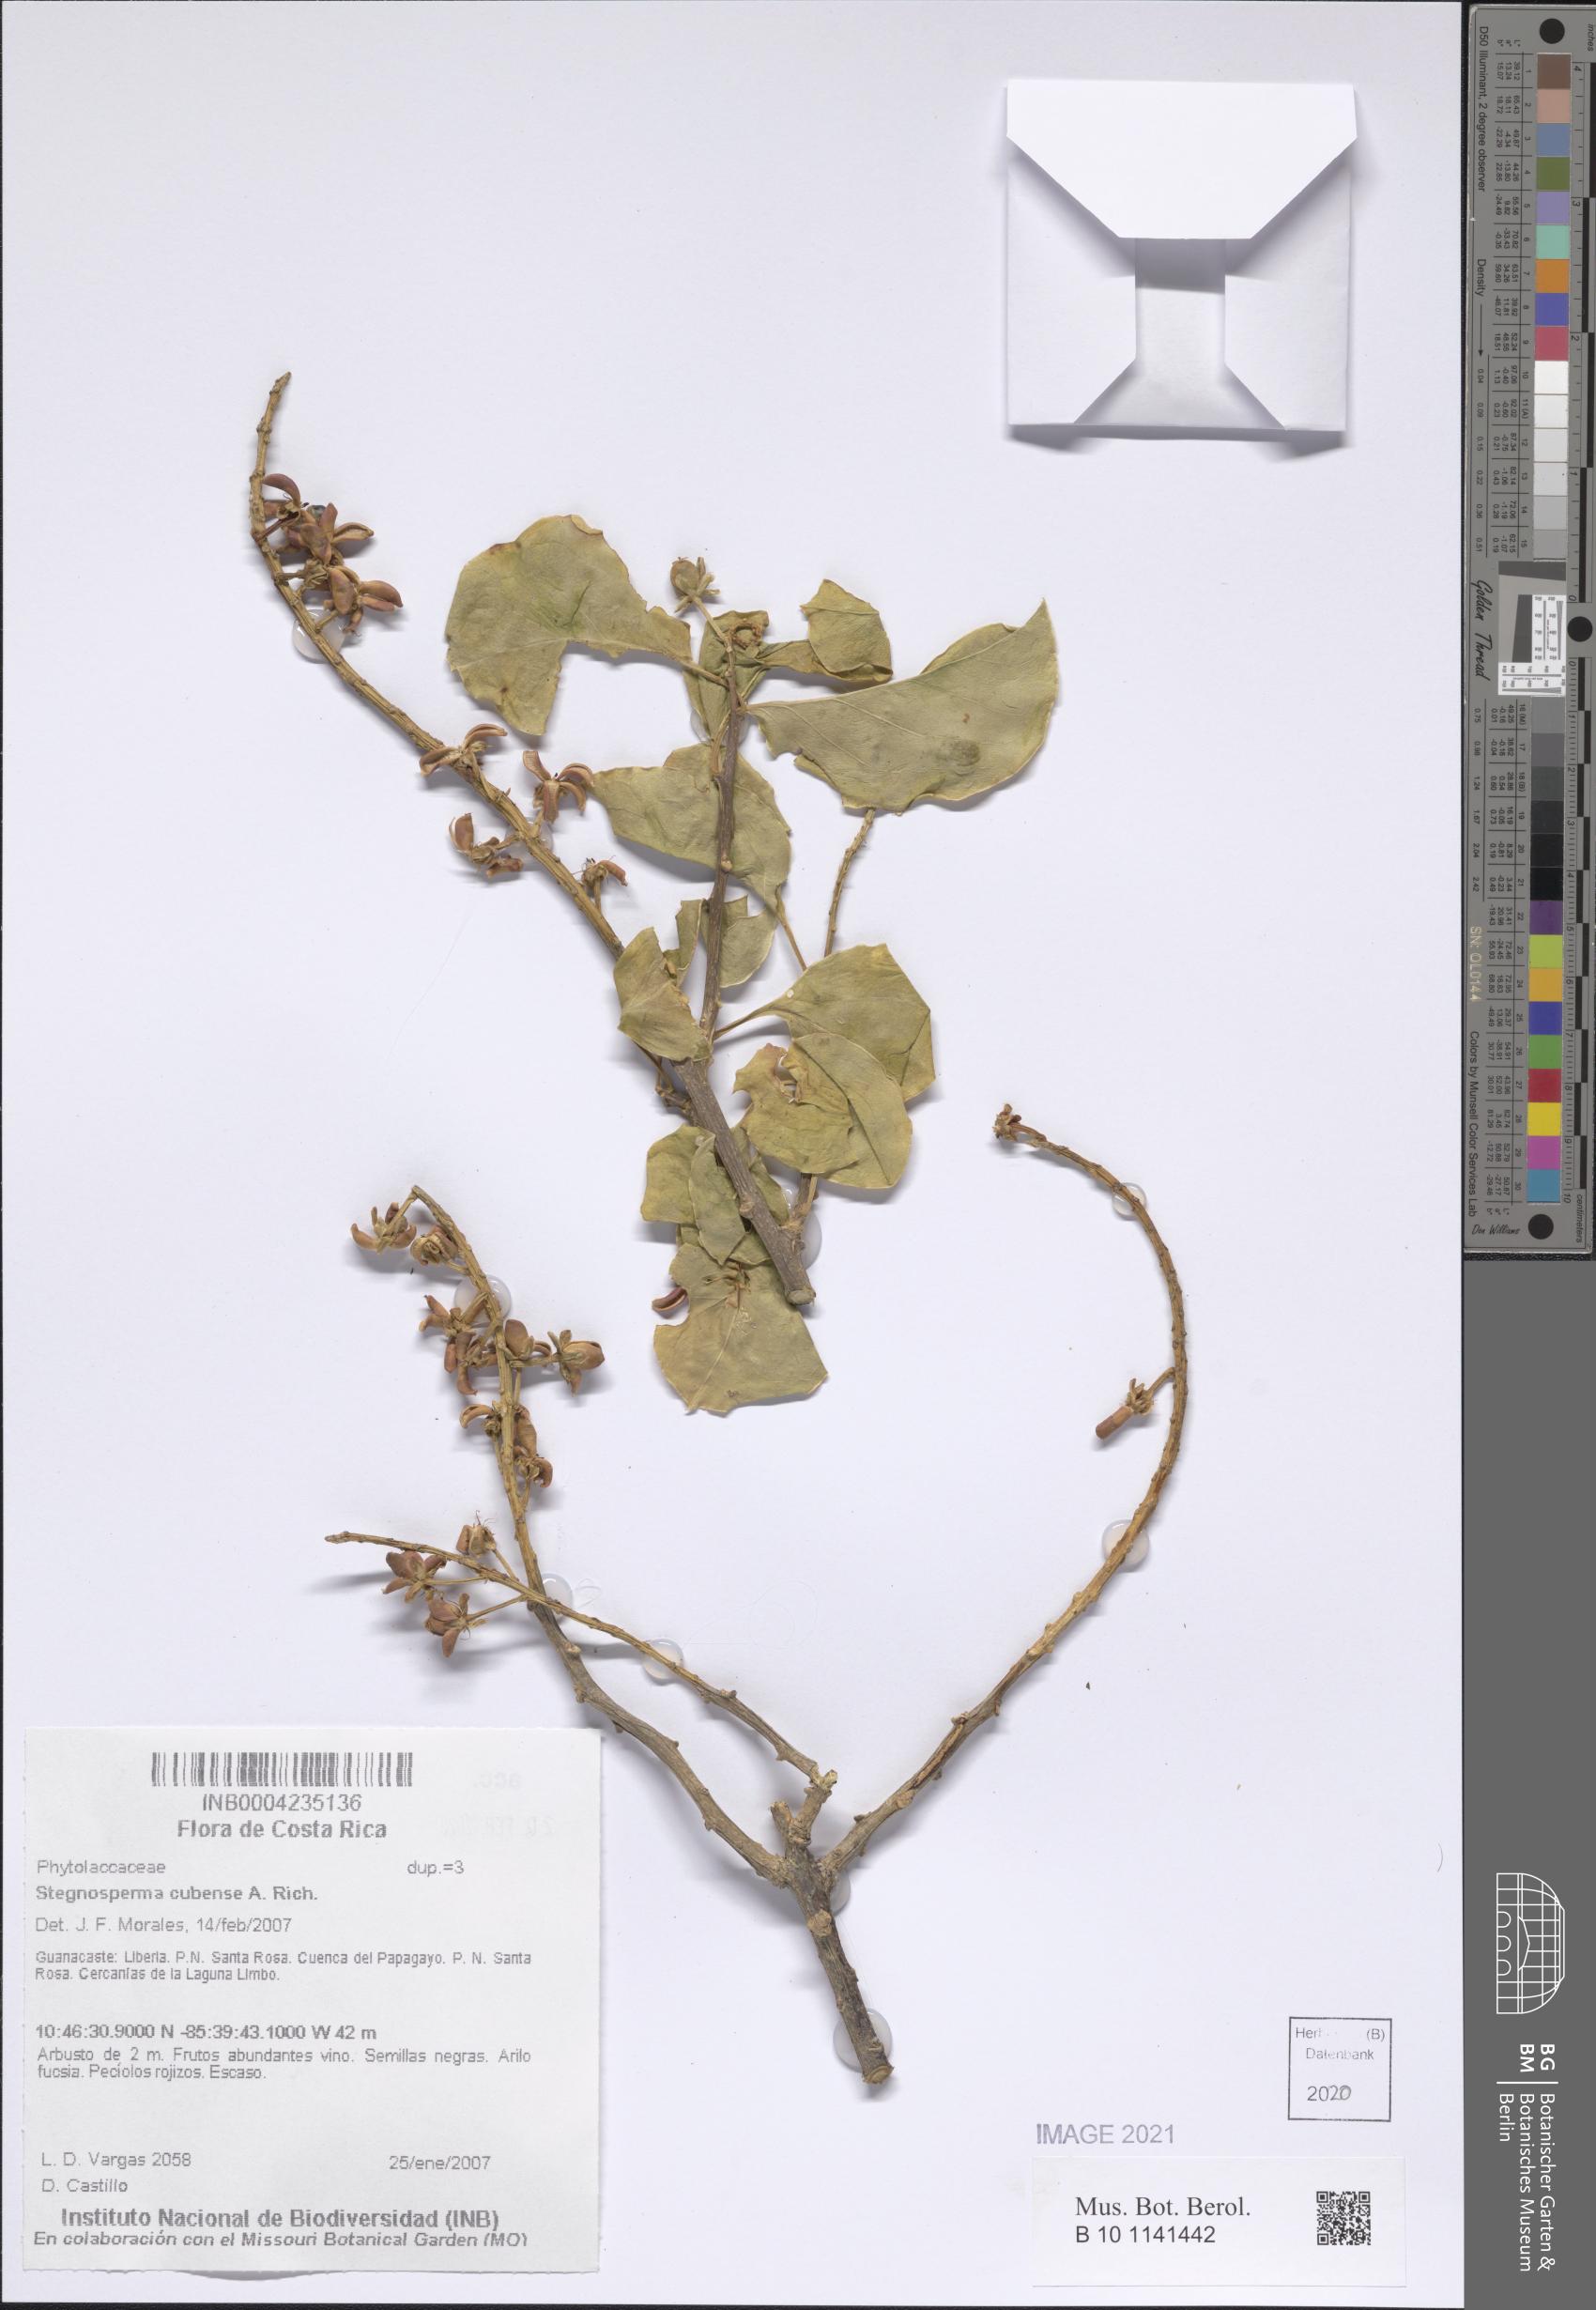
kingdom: Plantae
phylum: Tracheophyta
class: Magnoliopsida
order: Caryophyllales
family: Stegnospermataceae
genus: Stegnosperma
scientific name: Stegnosperma cubense
